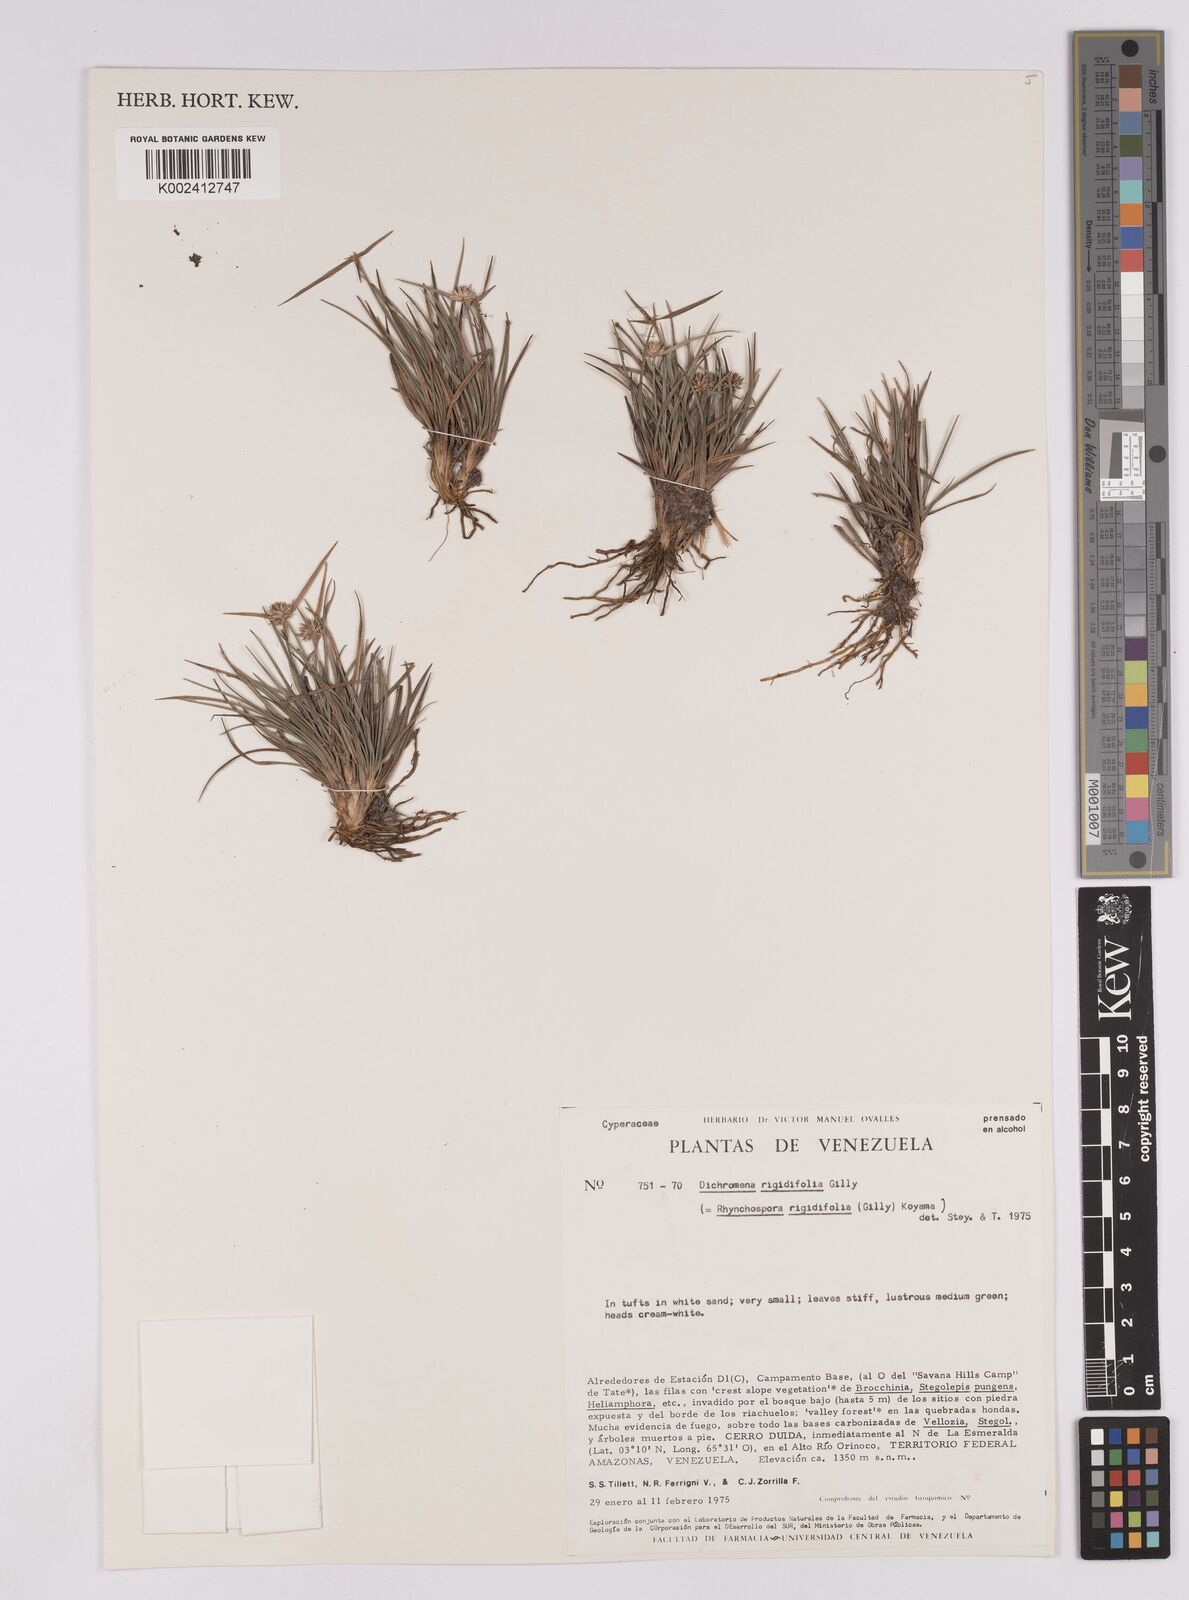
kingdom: Plantae
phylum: Tracheophyta
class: Liliopsida
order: Poales
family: Cyperaceae
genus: Rhynchospora
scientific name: Rhynchospora rigidifolia
